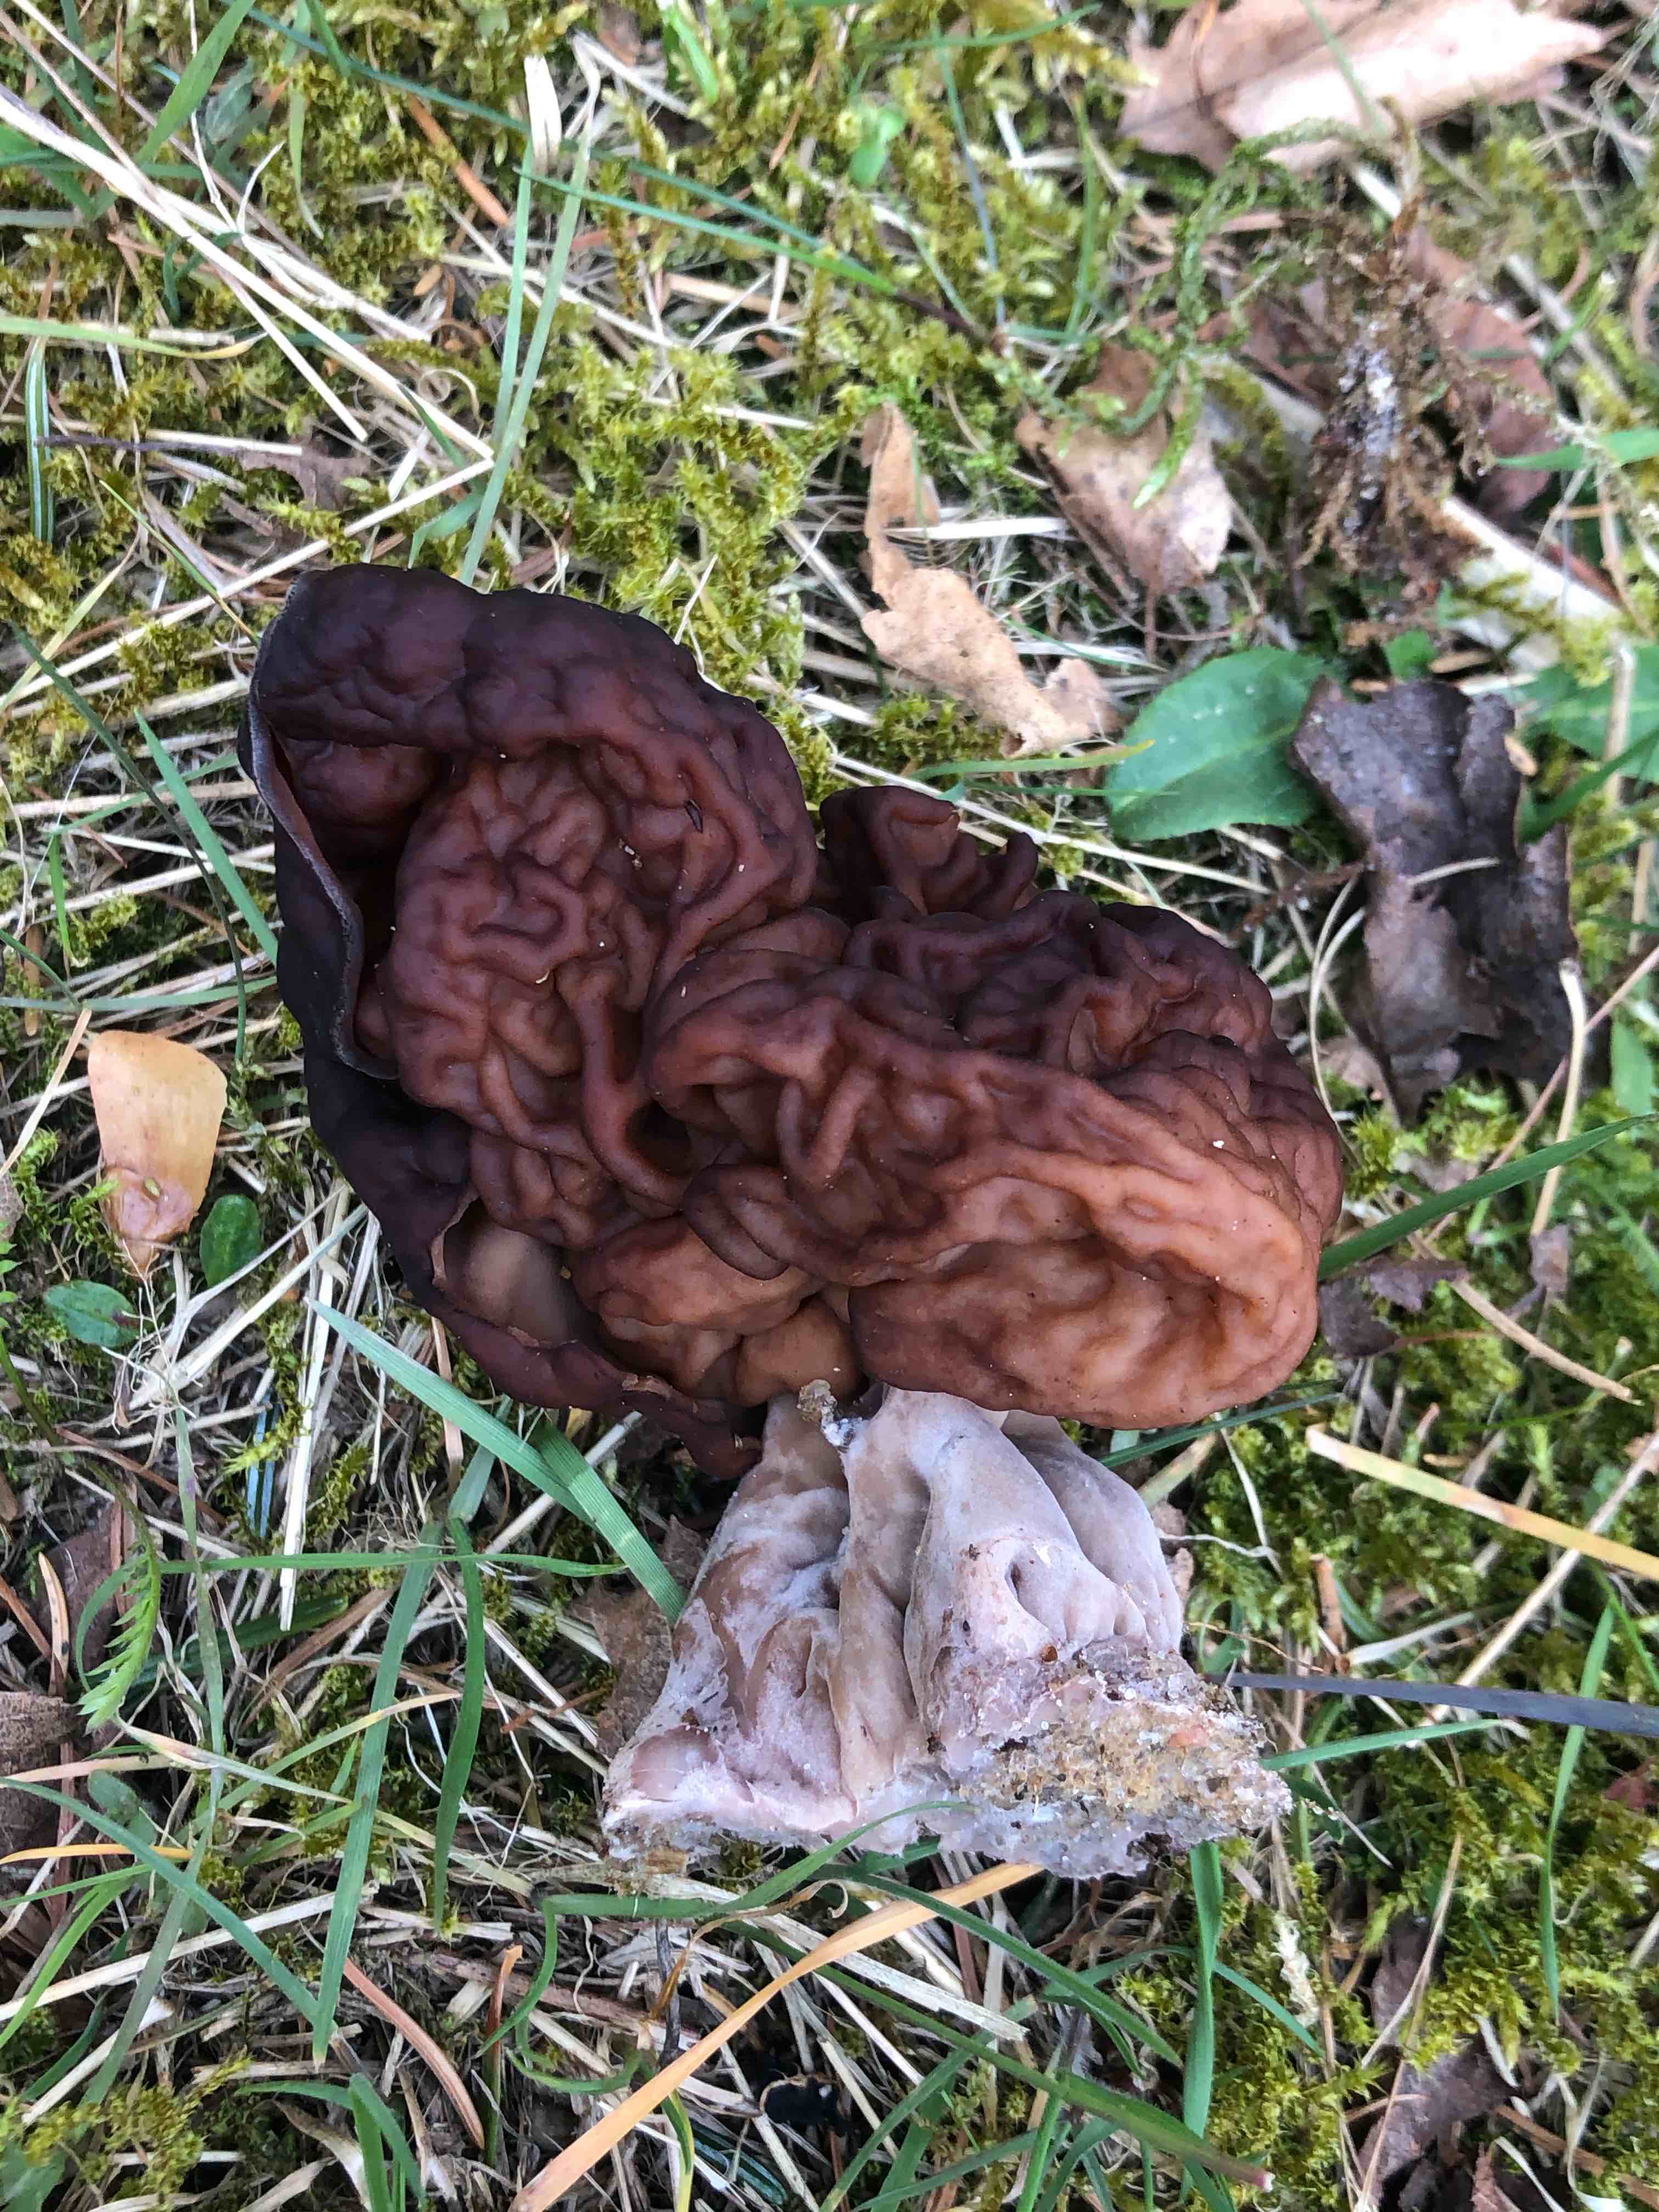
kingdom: Fungi
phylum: Ascomycota
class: Pezizomycetes
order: Pezizales
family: Discinaceae
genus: Gyromitra
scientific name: Gyromitra esculenta
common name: ægte stenmorkel
